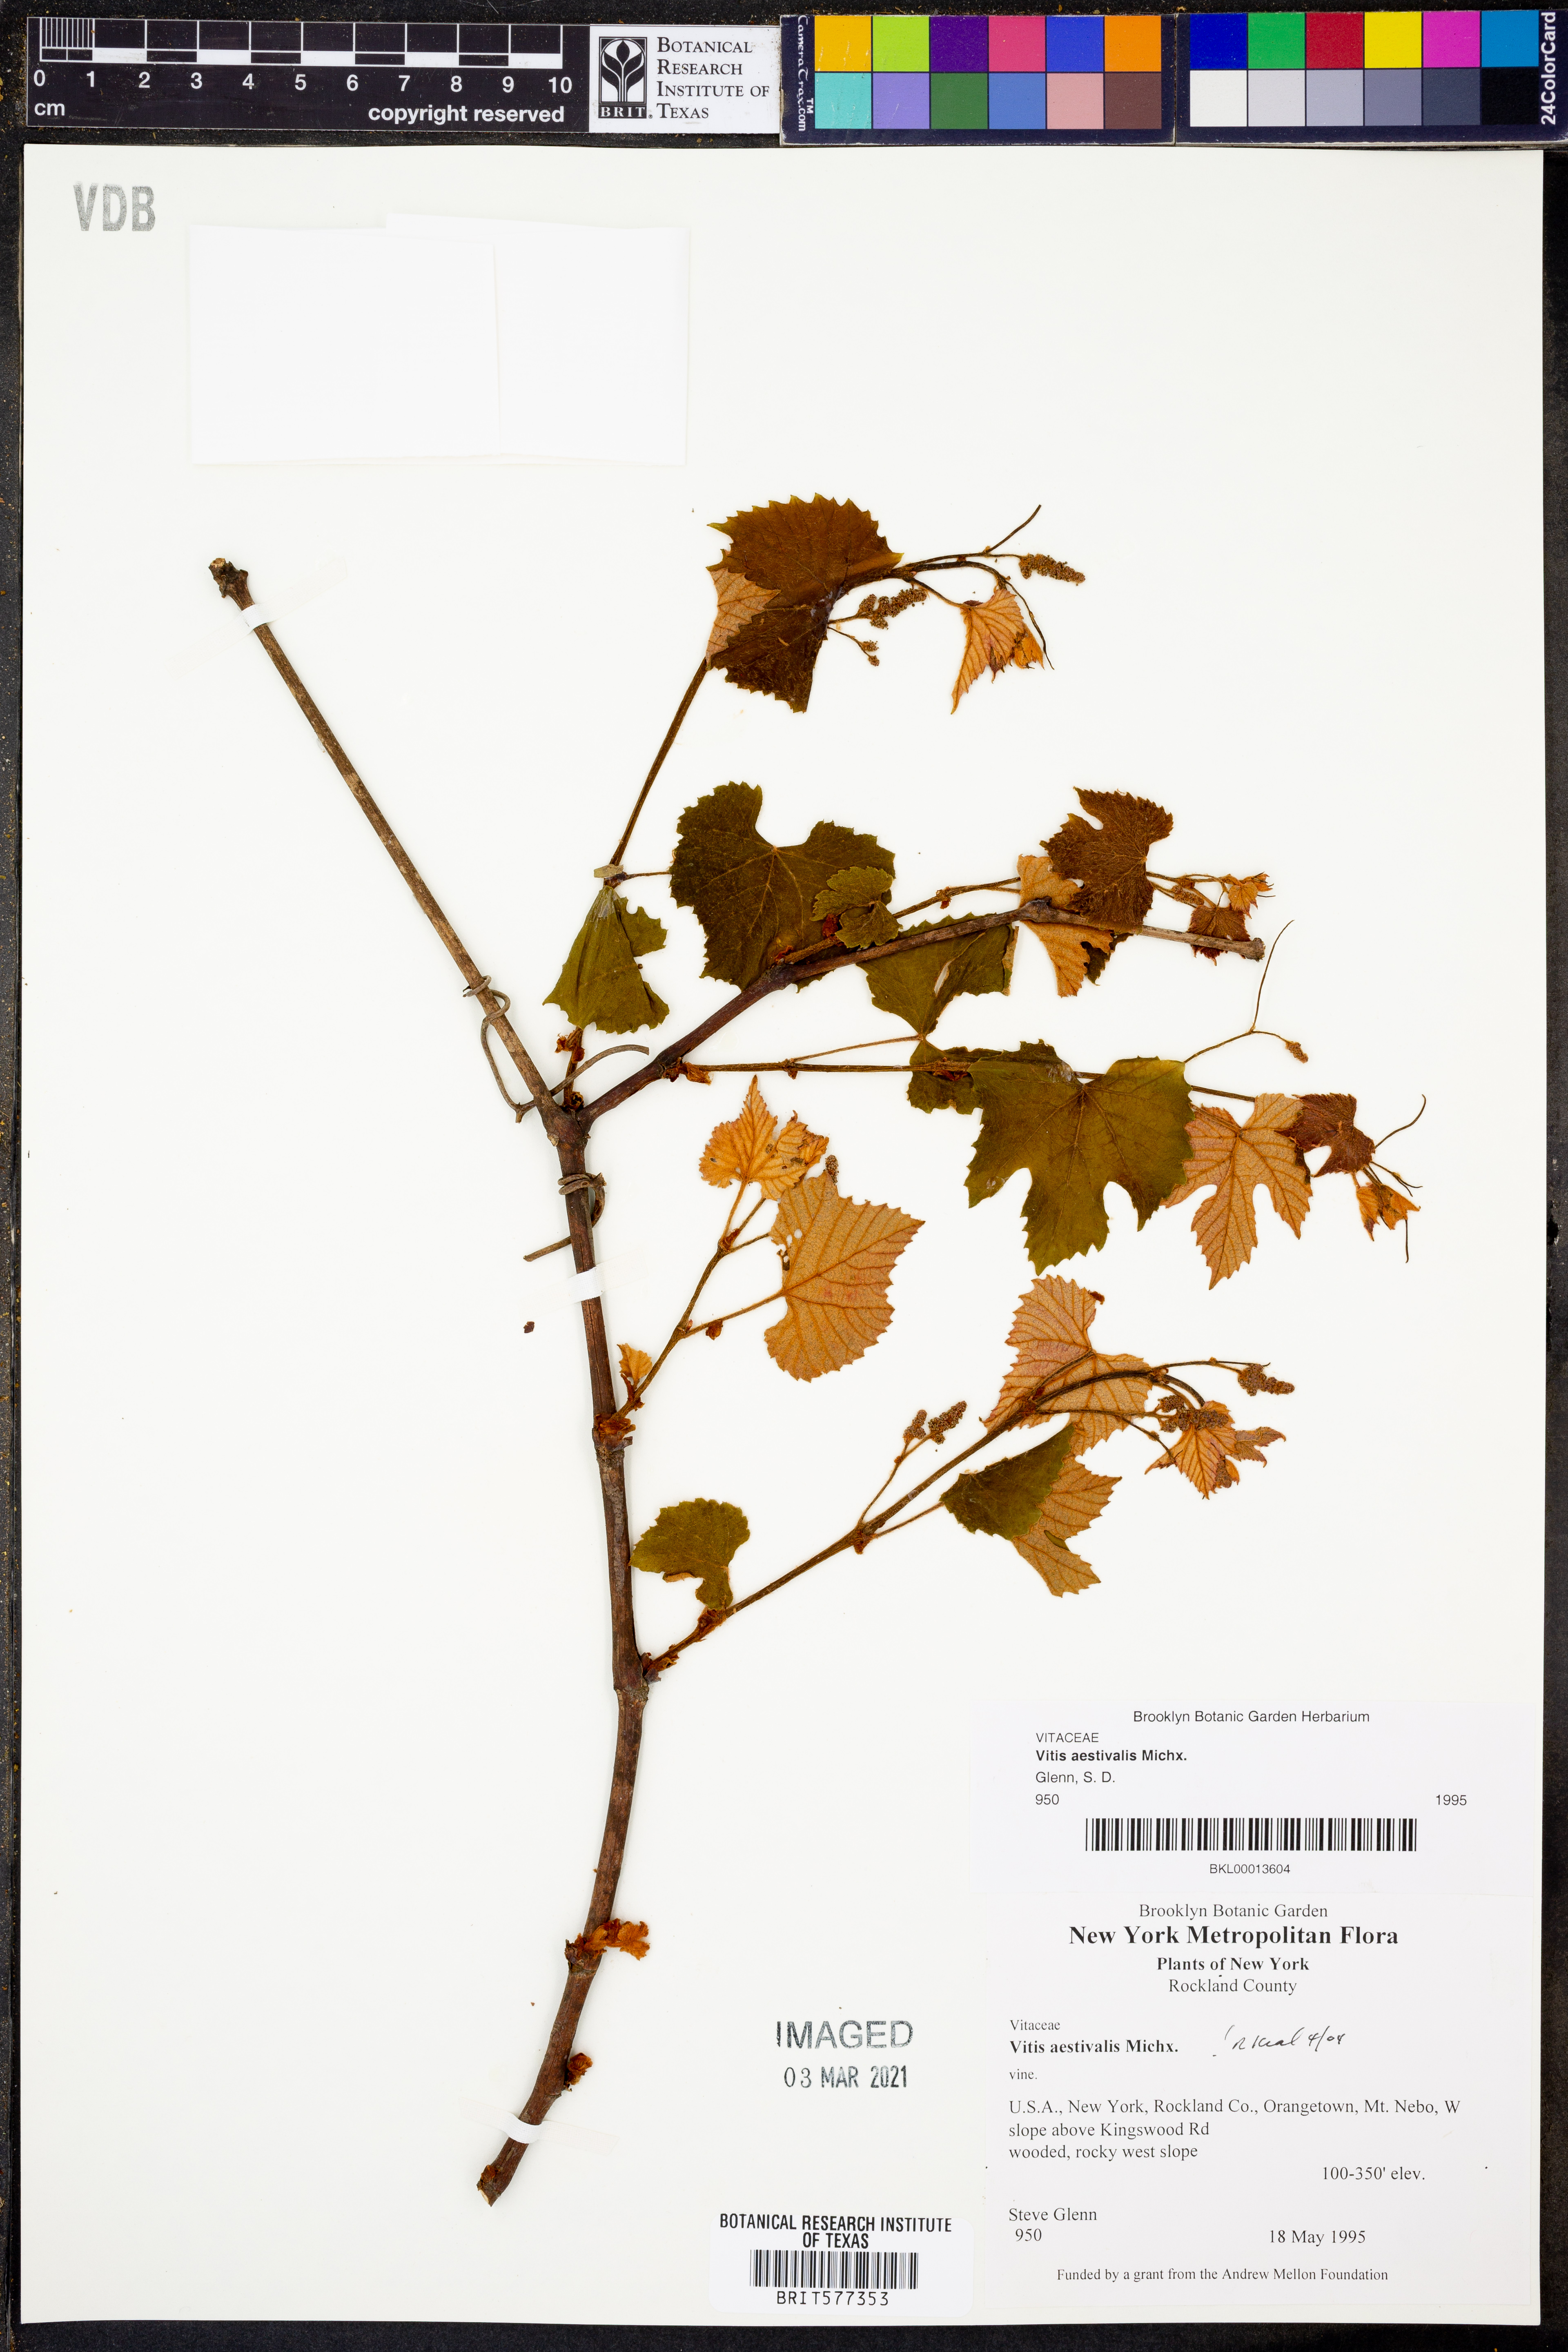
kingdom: Plantae
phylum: Tracheophyta
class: Magnoliopsida
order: Vitales
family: Vitaceae
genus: Vitis
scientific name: Vitis aestivalis
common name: Pigeon grape
